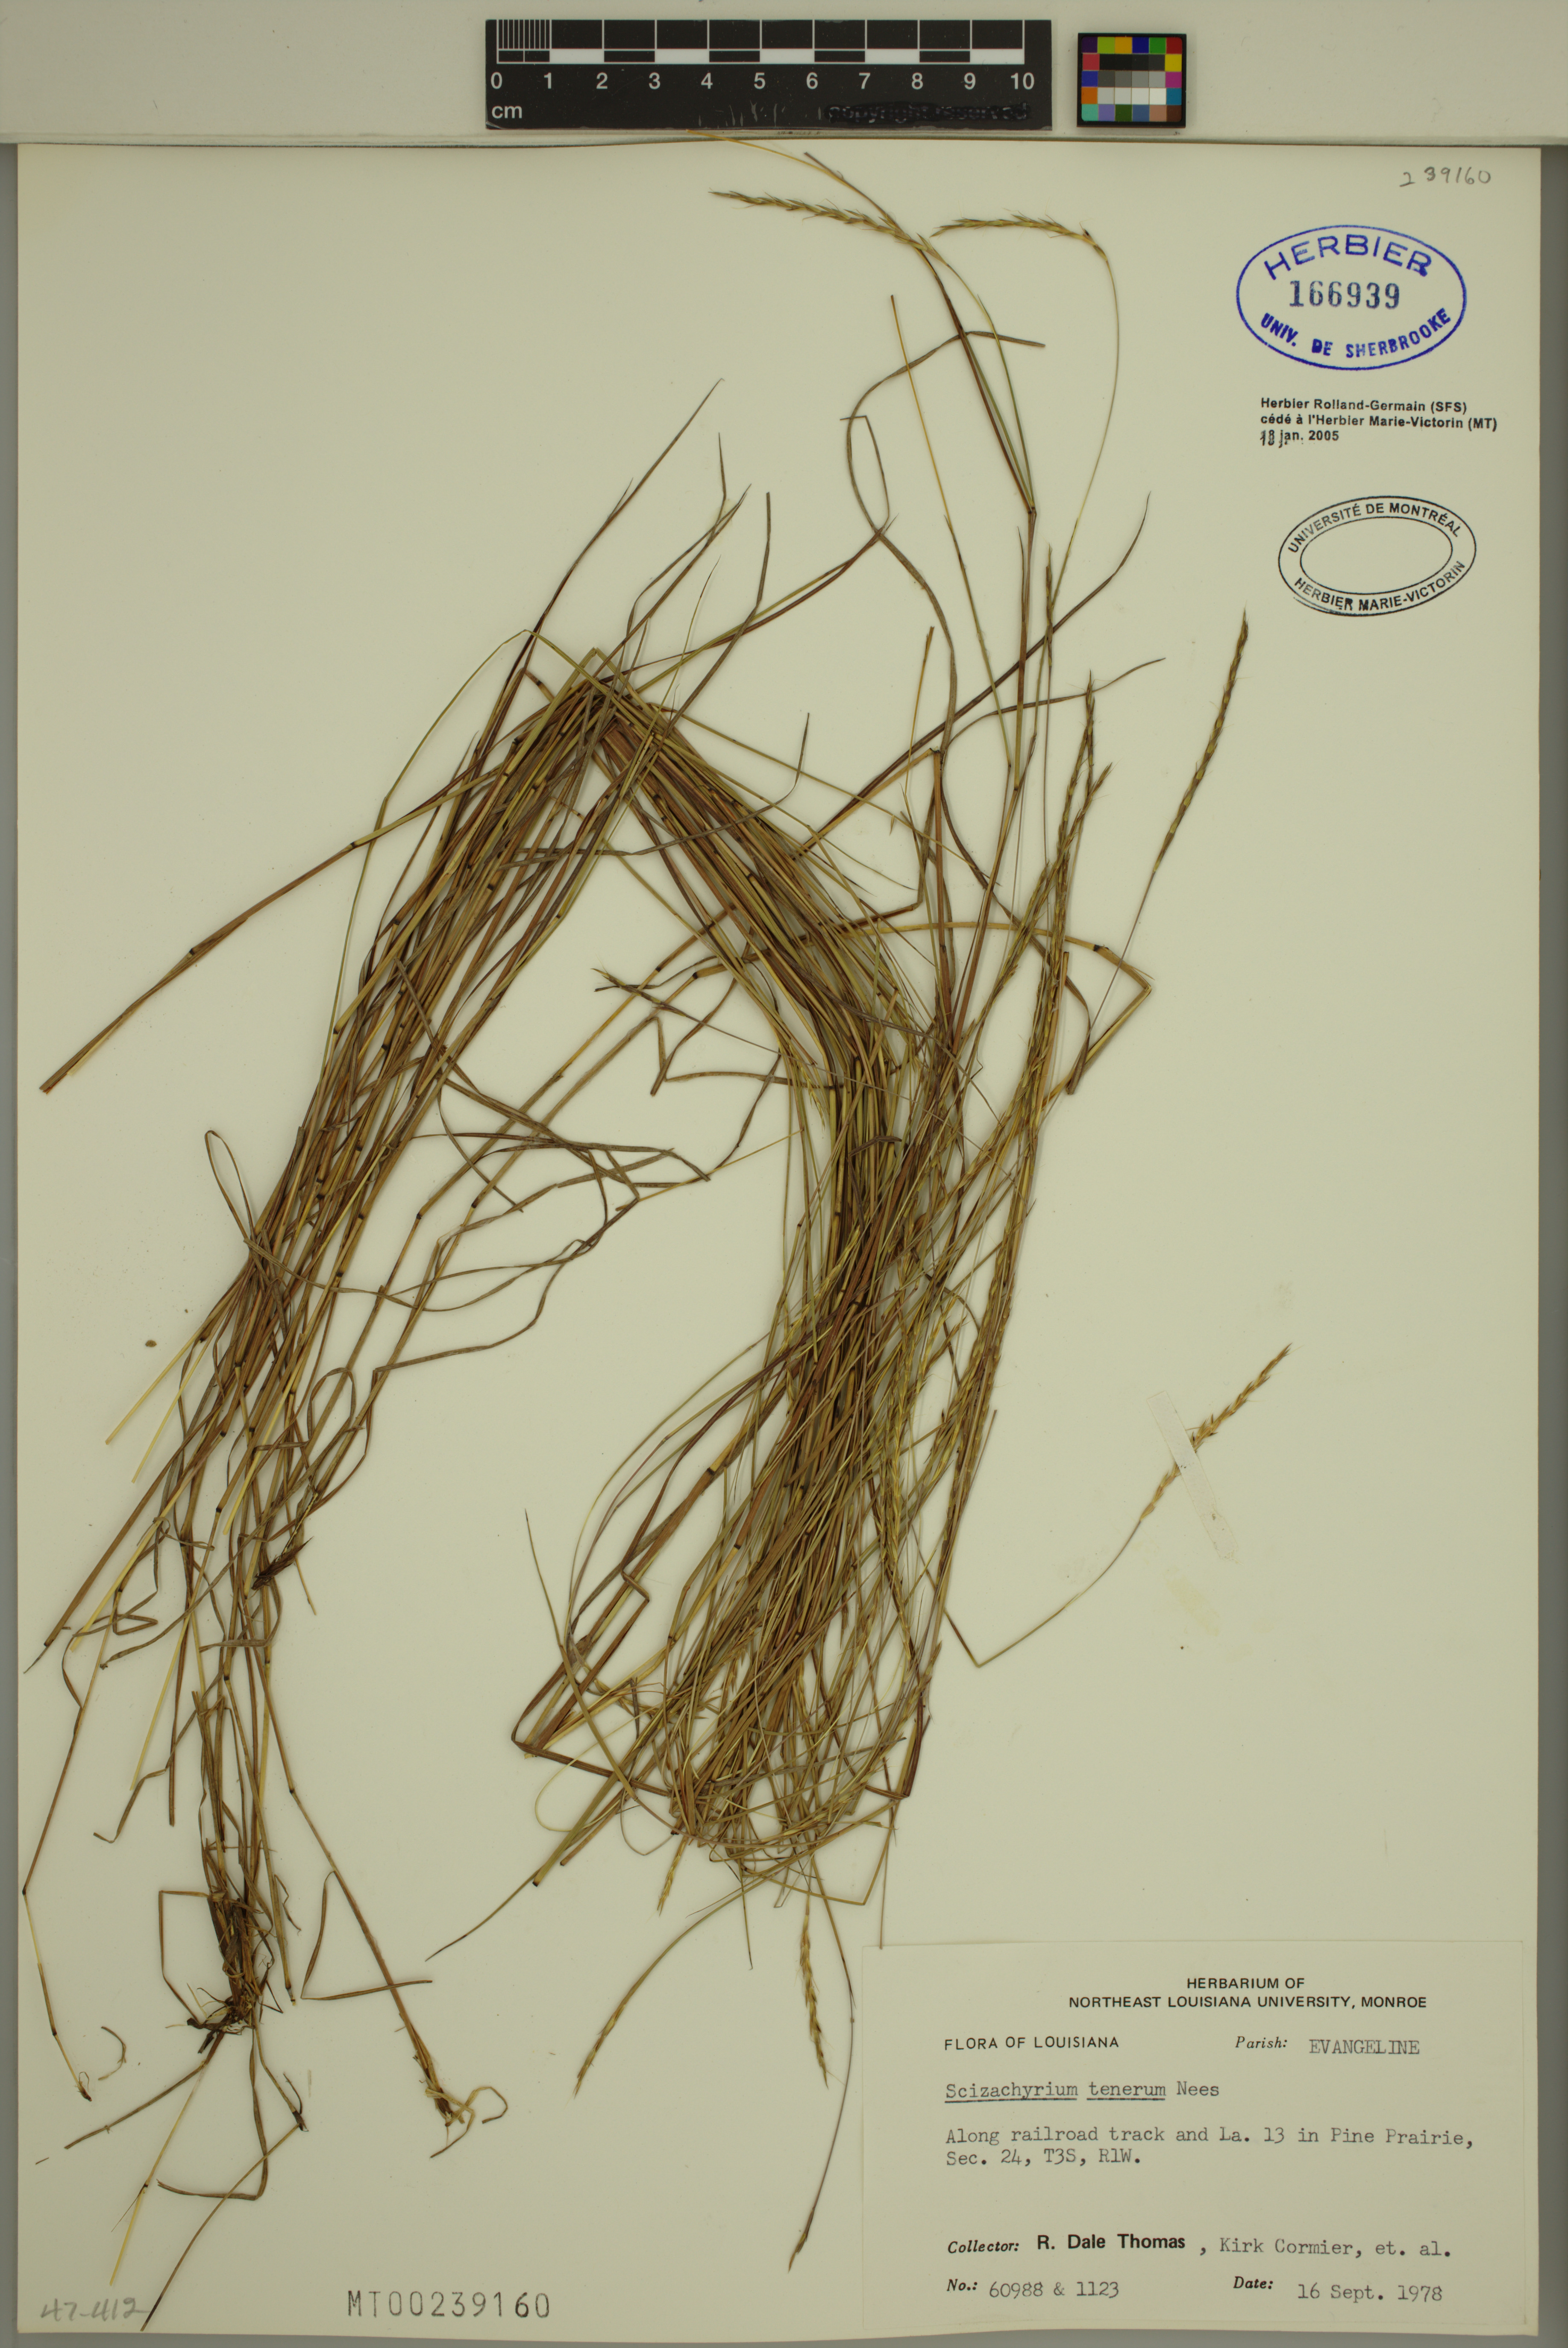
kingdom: Plantae
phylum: Tracheophyta
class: Liliopsida
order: Poales
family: Poaceae
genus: Andropogon
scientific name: Andropogon tener
